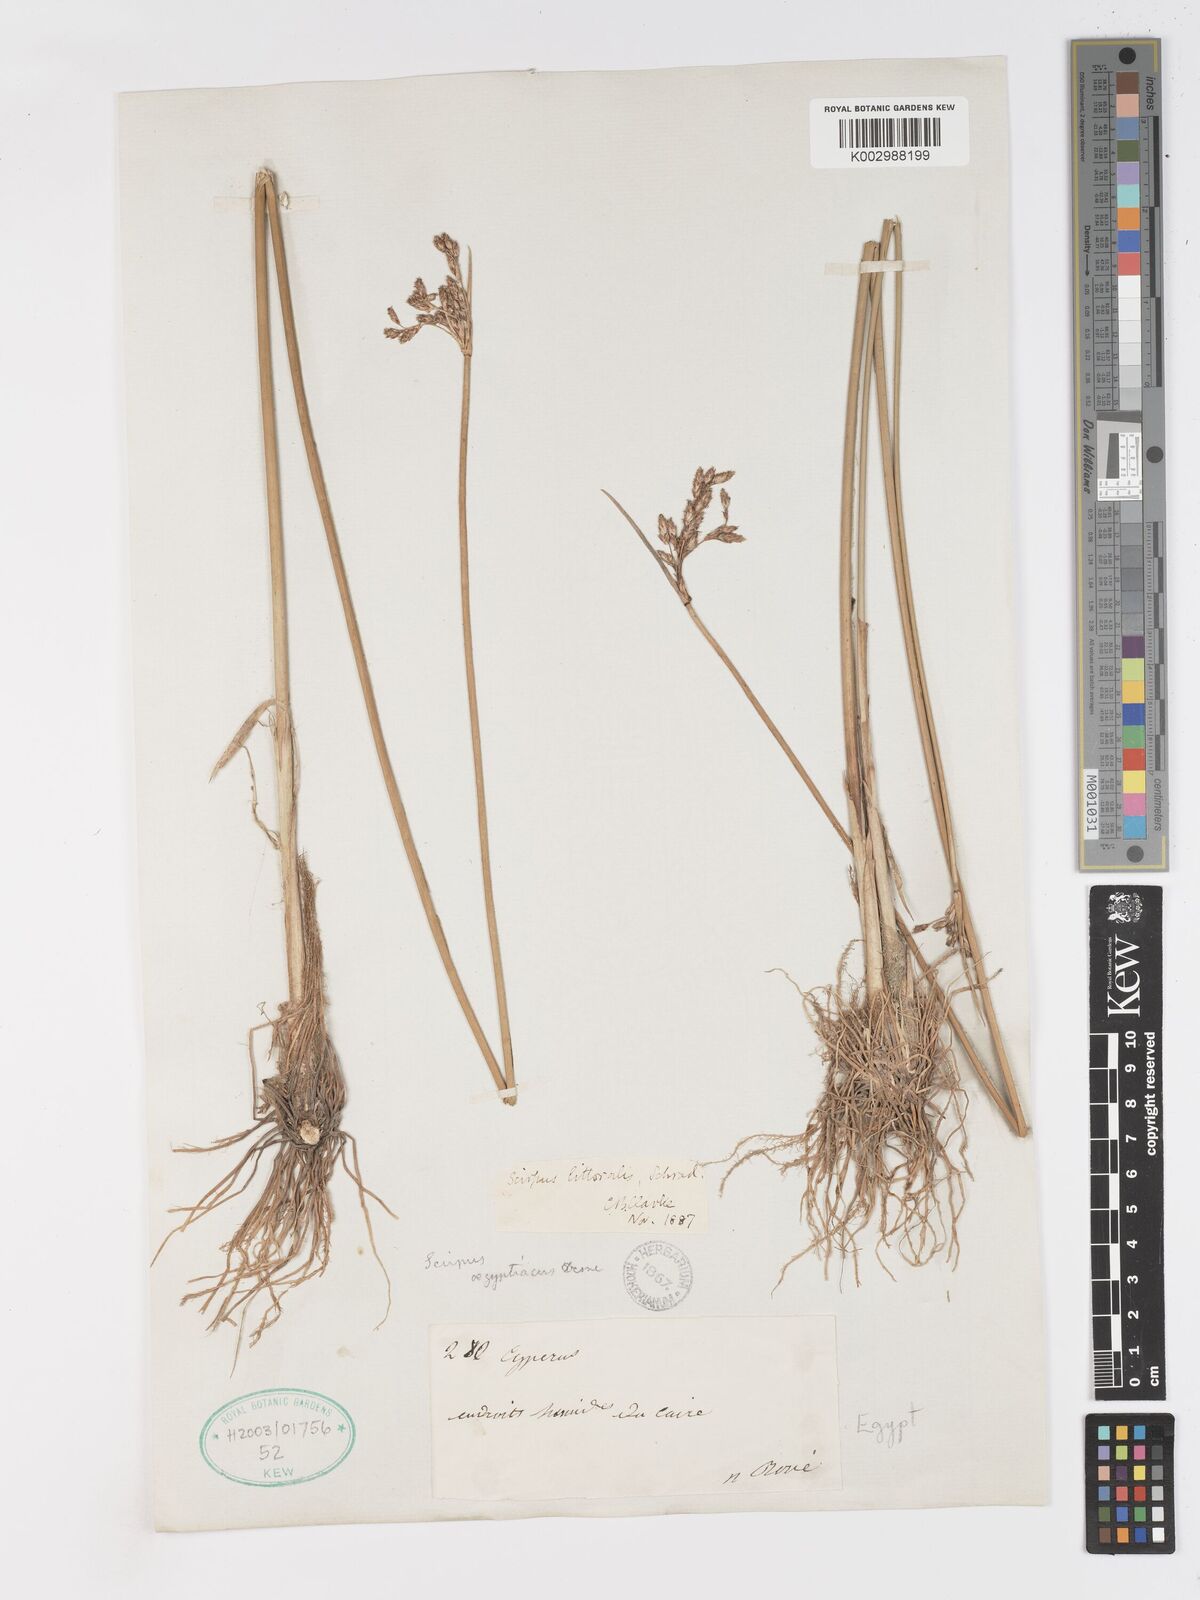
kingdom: Plantae
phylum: Tracheophyta
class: Liliopsida
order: Poales
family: Cyperaceae
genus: Schoenoplectus
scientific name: Schoenoplectus litoralis
